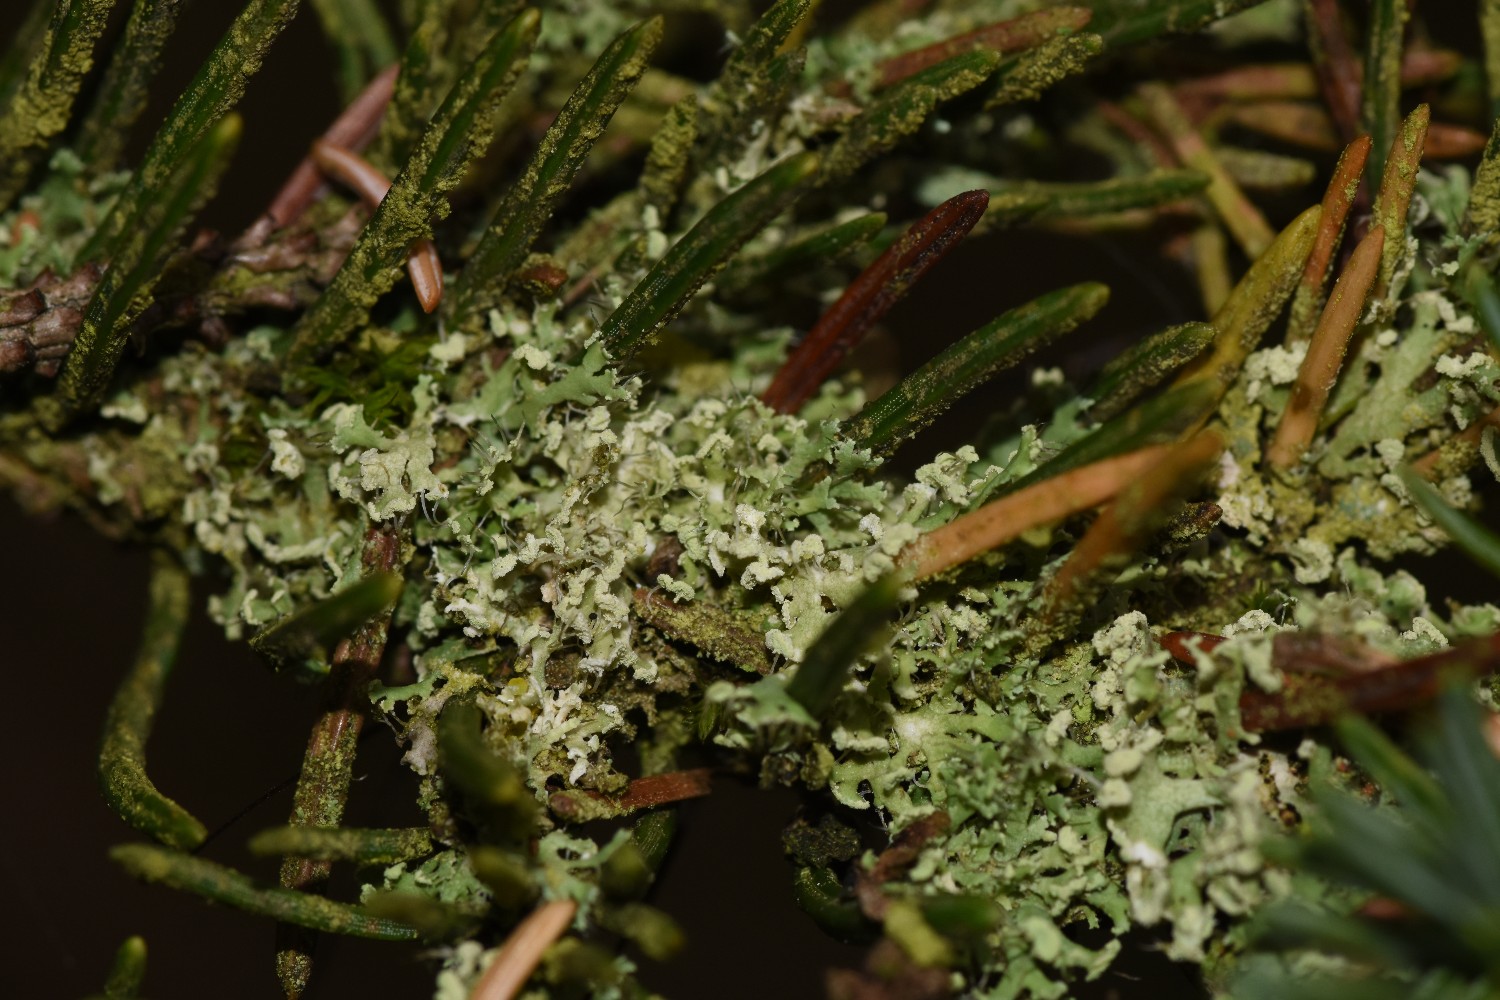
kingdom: Fungi
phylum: Ascomycota
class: Lecanoromycetes
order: Caliciales
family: Physciaceae
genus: Physcia
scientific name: Physcia tenella
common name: spæd rosetlav
